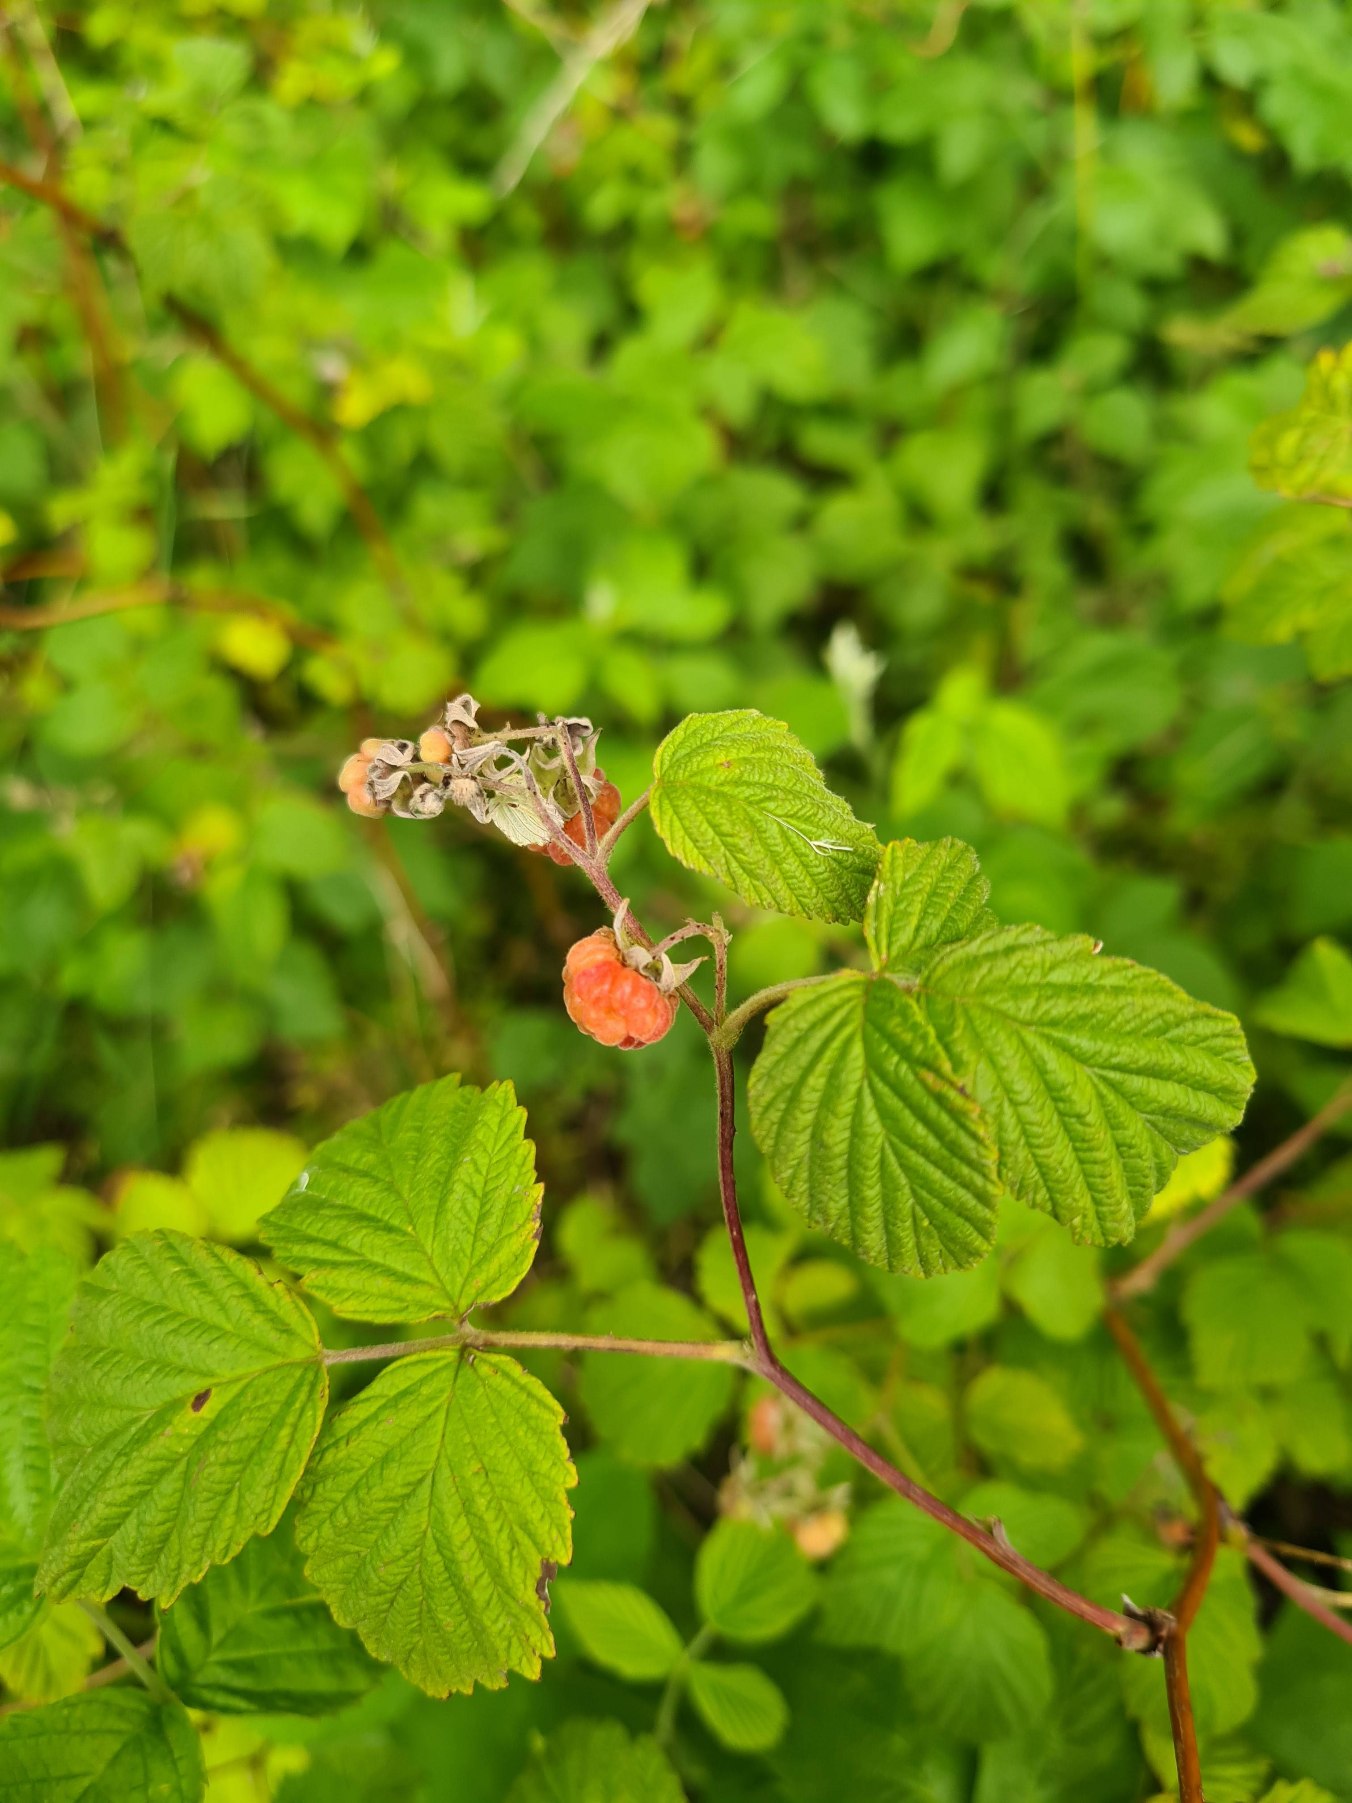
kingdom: Plantae
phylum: Tracheophyta
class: Magnoliopsida
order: Rosales
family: Rosaceae
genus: Rubus
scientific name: Rubus idaeus
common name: Hindbær
